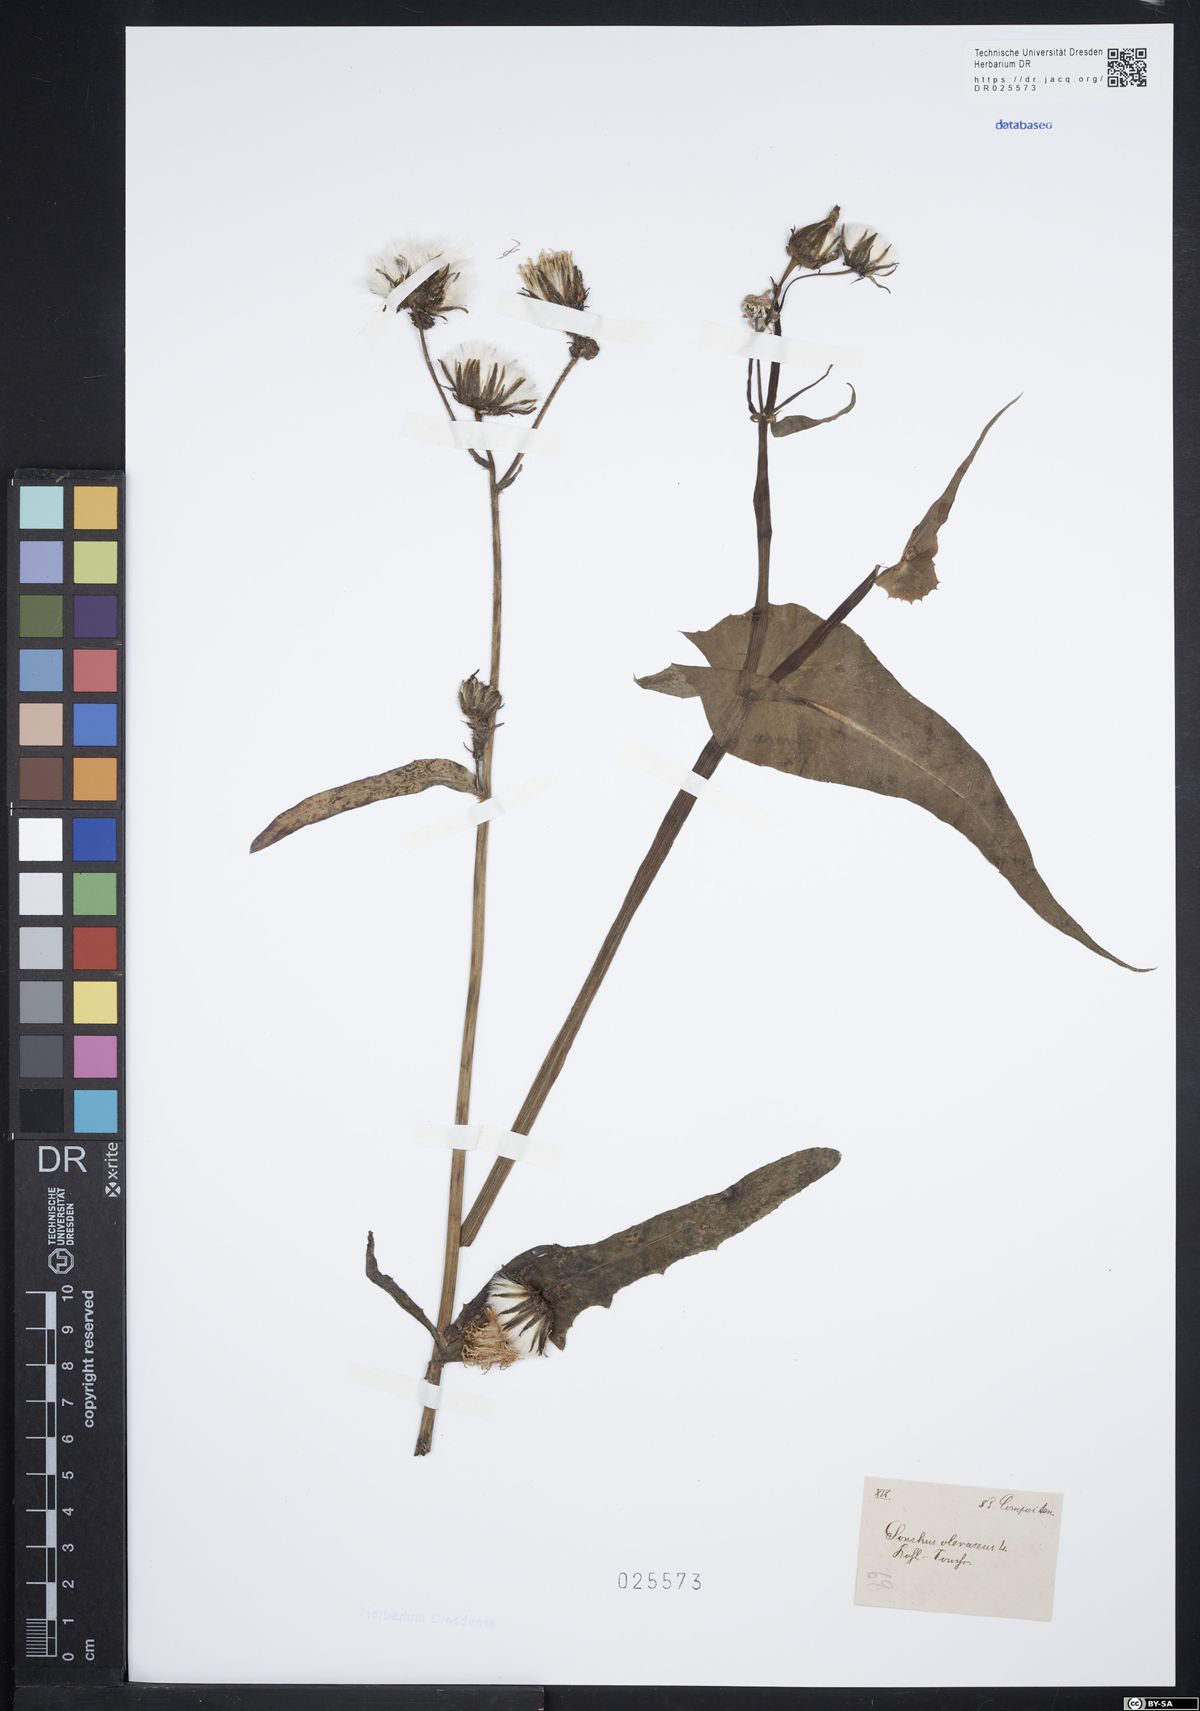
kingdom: Plantae
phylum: Tracheophyta
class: Magnoliopsida
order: Asterales
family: Asteraceae
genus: Sonchus
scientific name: Sonchus oleraceus
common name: Common sowthistle
